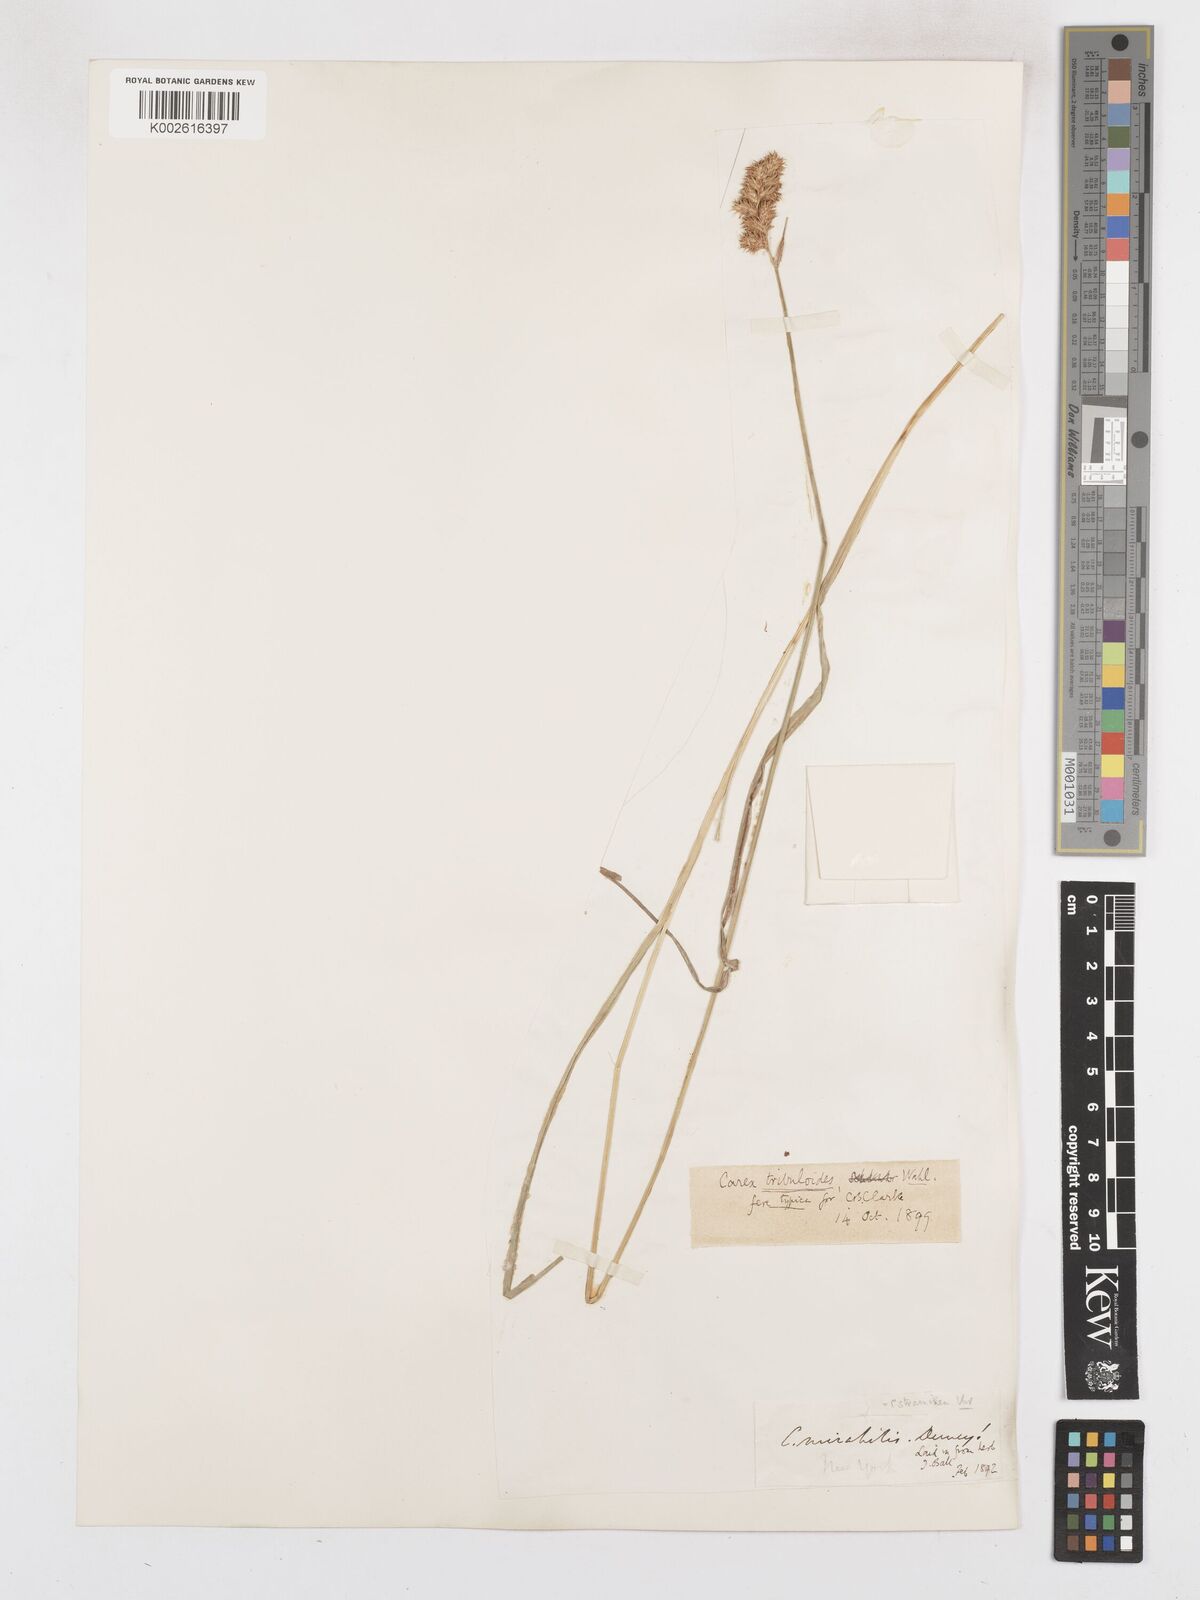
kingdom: Plantae
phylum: Tracheophyta
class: Liliopsida
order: Poales
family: Cyperaceae
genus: Carex
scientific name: Carex tribuloides
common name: Blunt broom sedge
